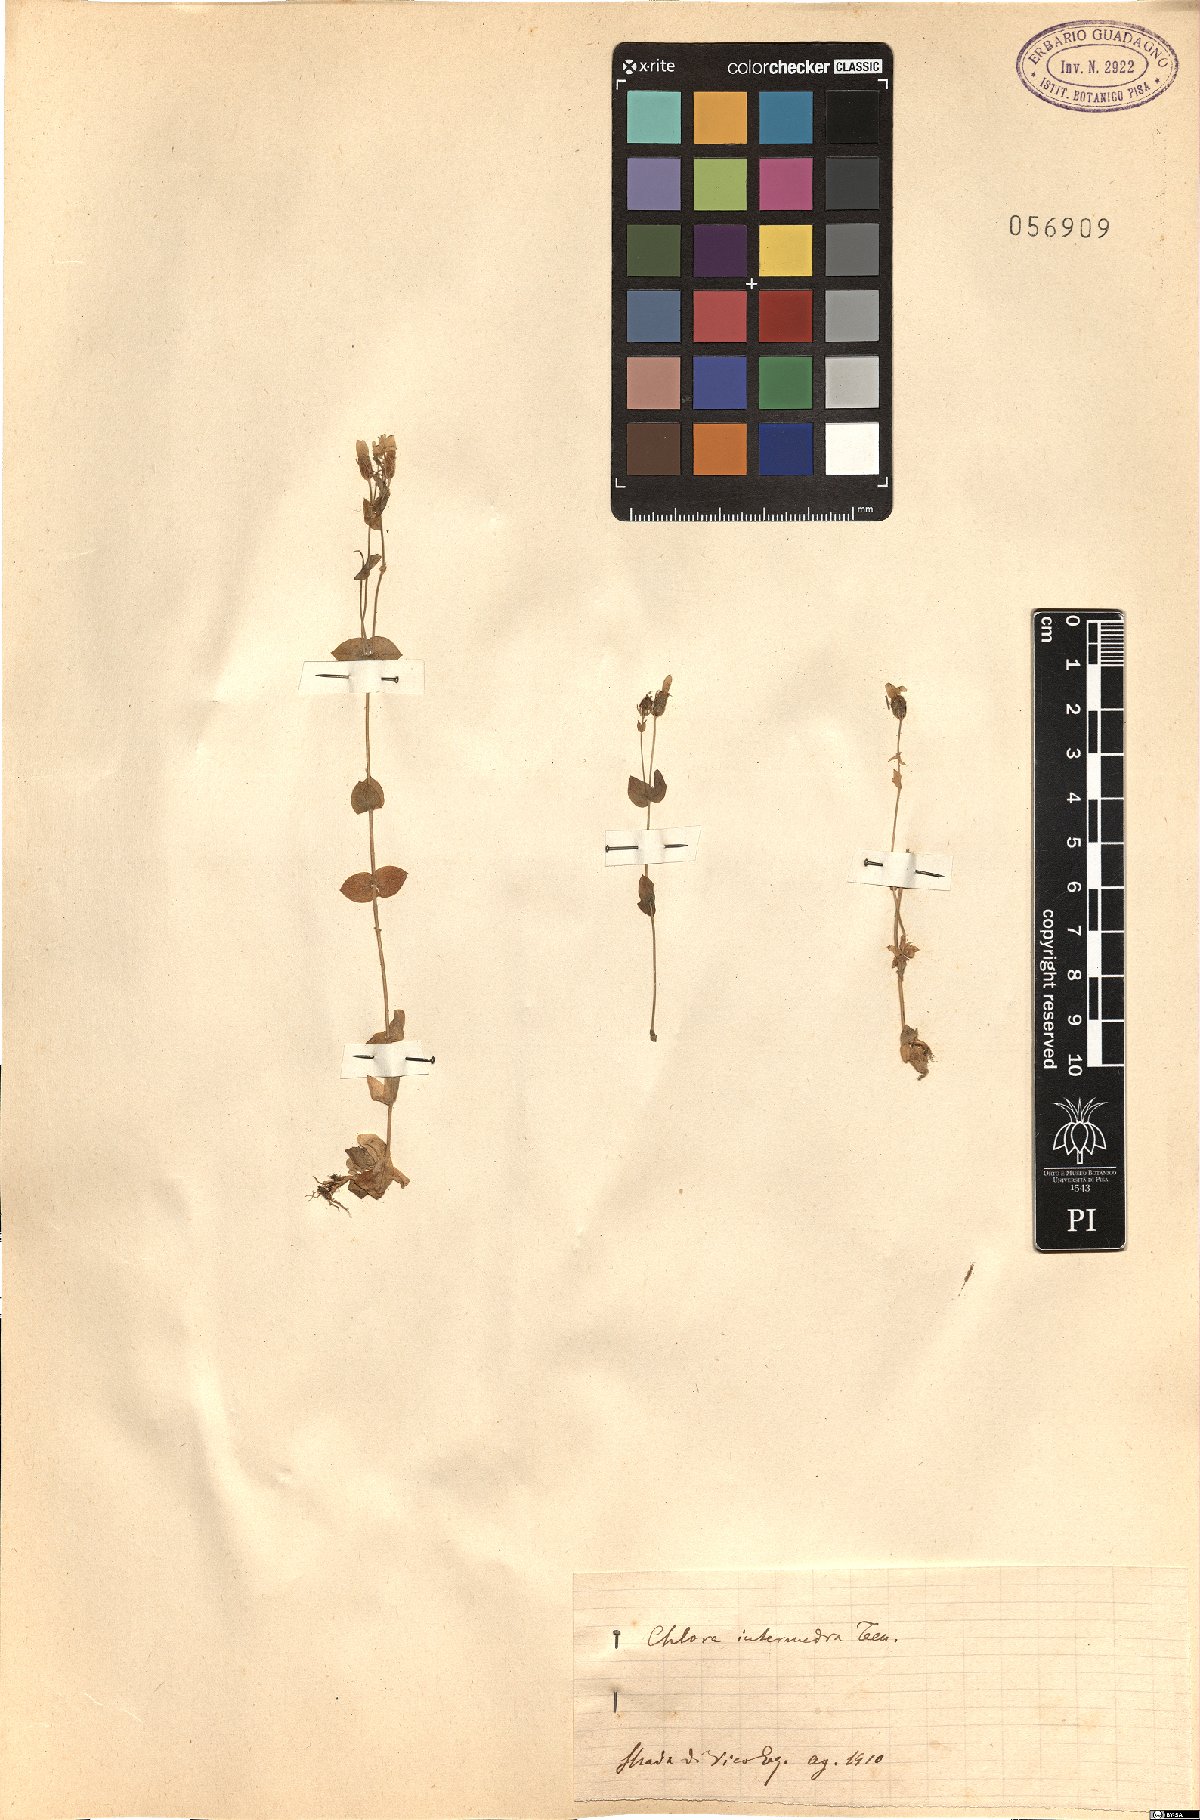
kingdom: Plantae
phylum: Tracheophyta
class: Magnoliopsida
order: Gentianales
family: Gentianaceae
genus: Blackstonia
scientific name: Blackstonia perfoliata
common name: Yellow-wort
